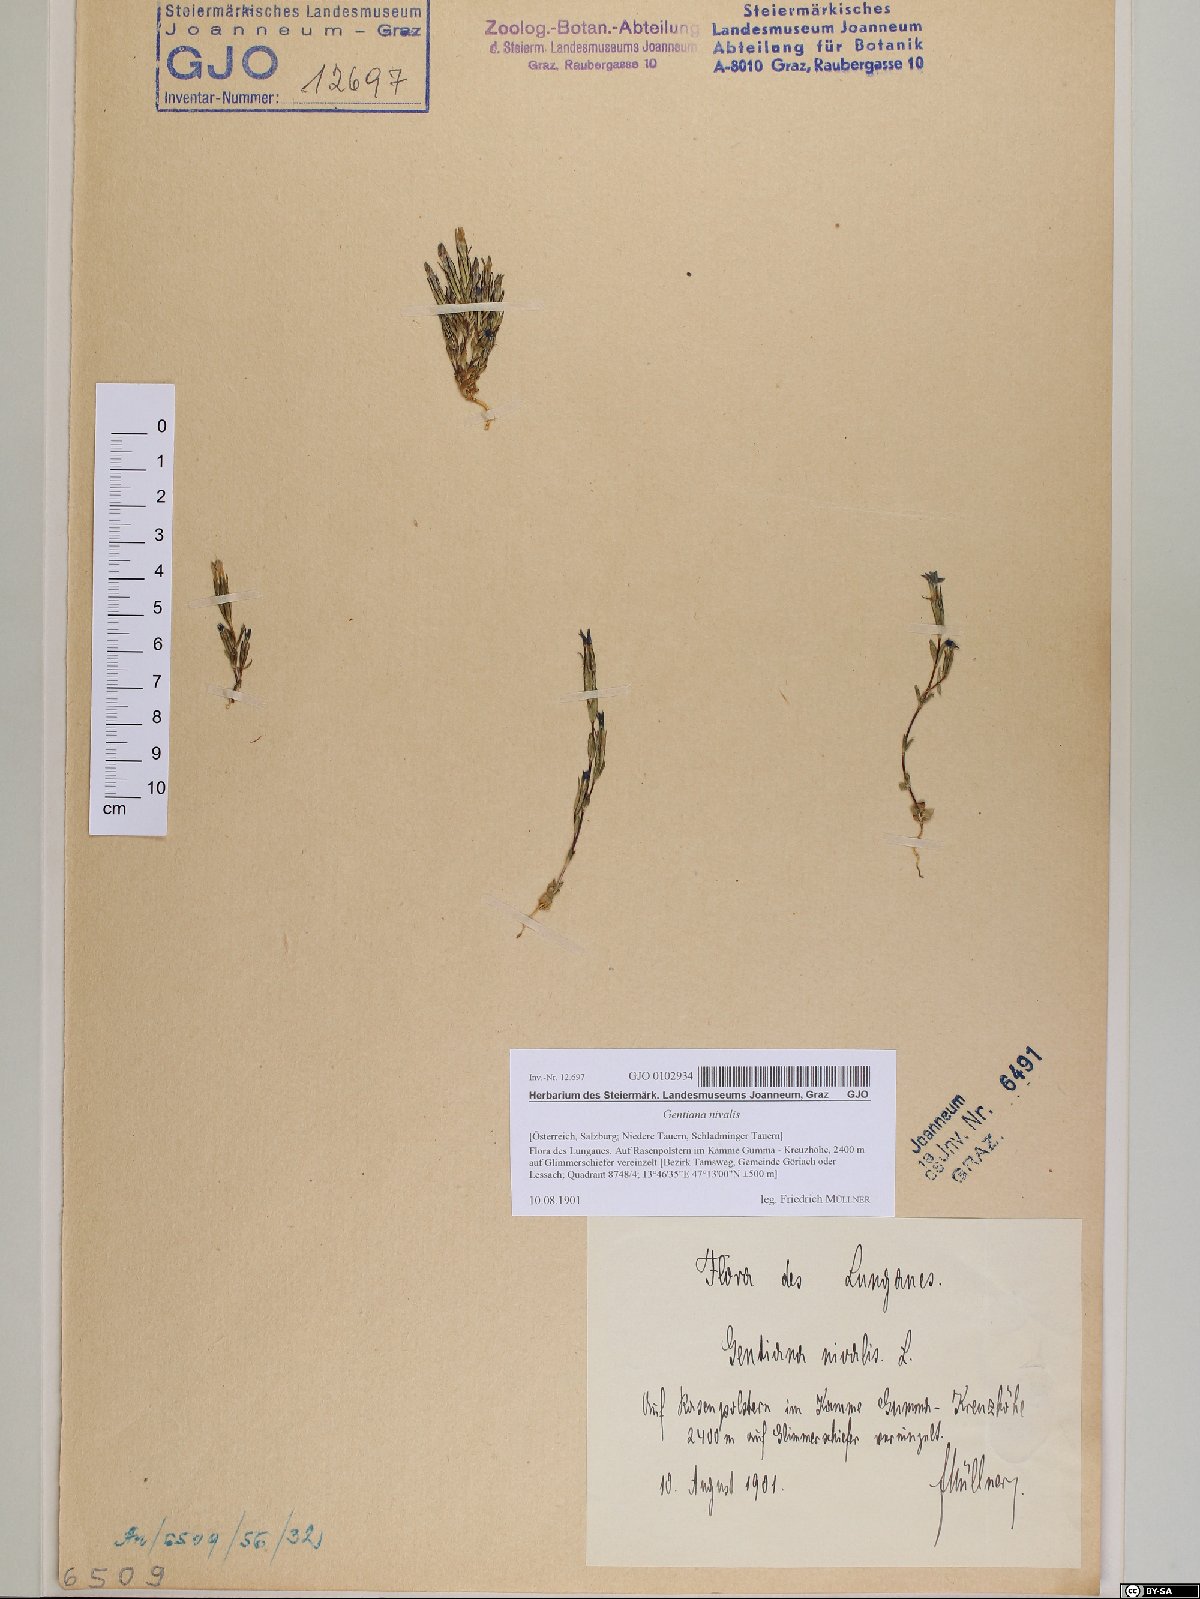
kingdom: Plantae
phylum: Tracheophyta
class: Magnoliopsida
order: Gentianales
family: Gentianaceae
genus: Gentiana
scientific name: Gentiana nivalis
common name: Alpine gentian
